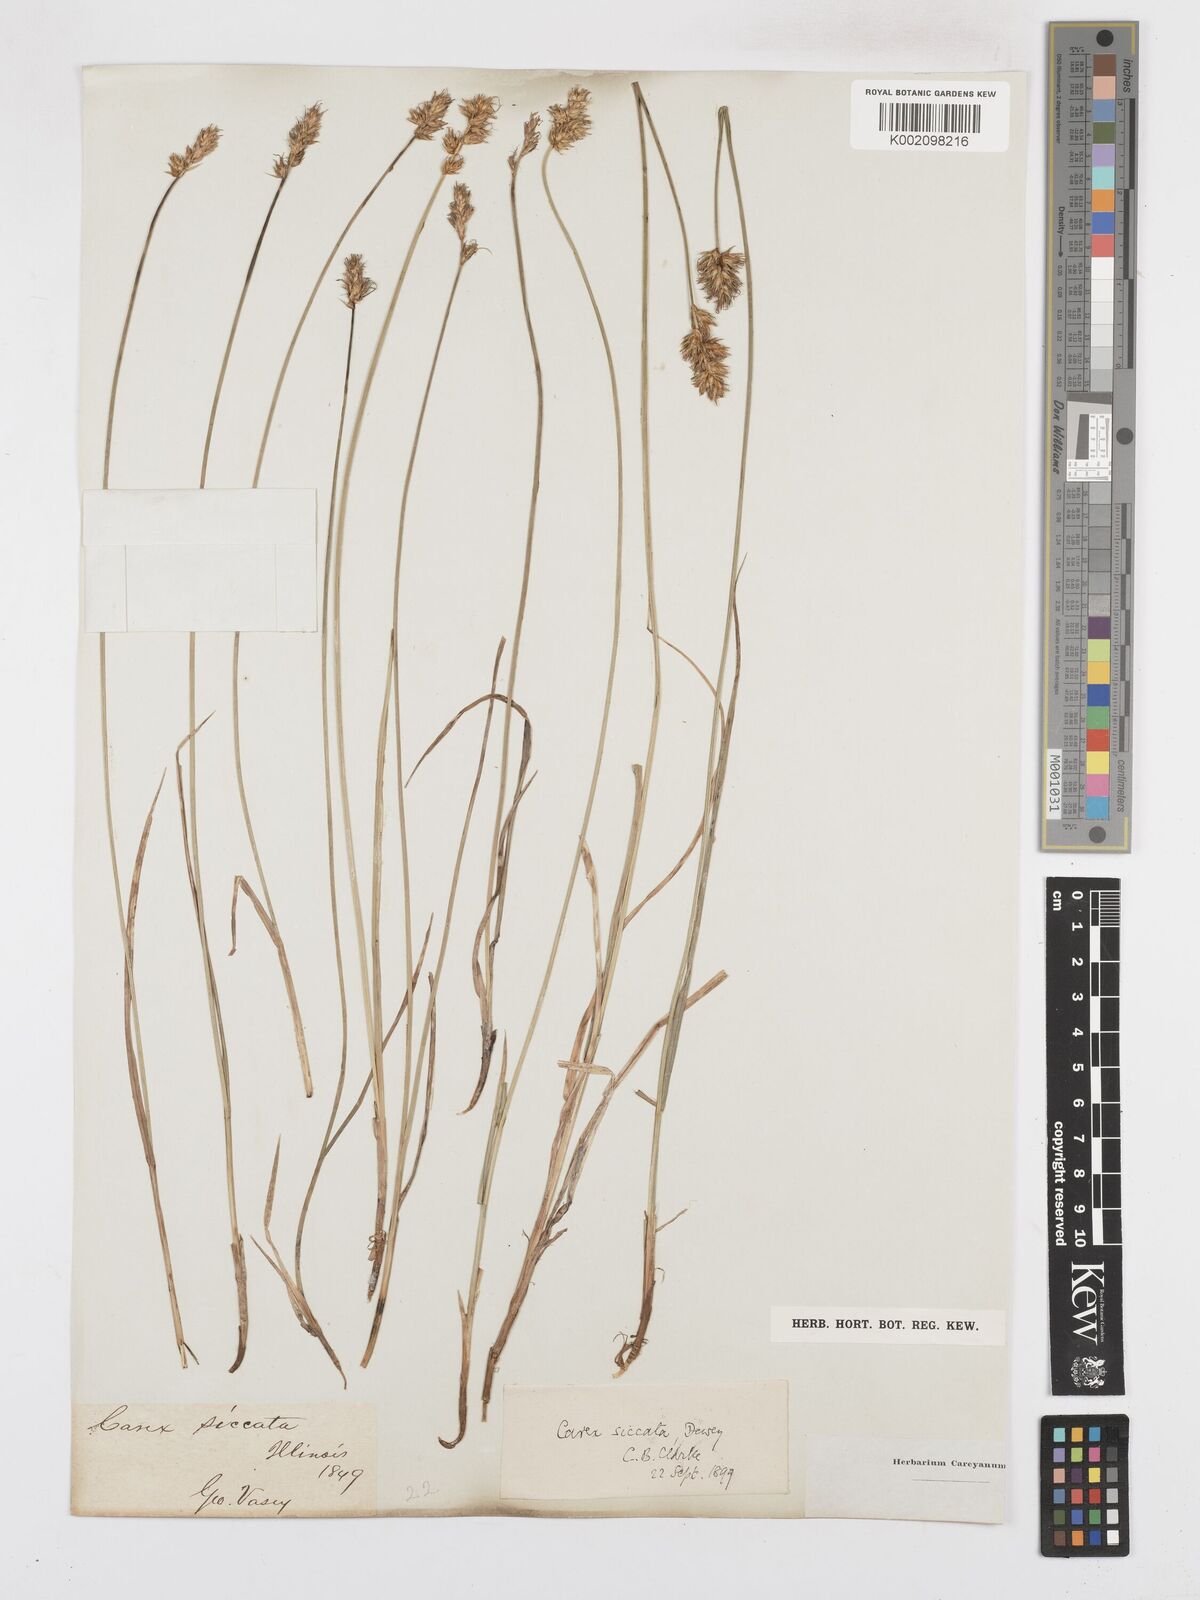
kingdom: Plantae
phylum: Tracheophyta
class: Liliopsida
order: Poales
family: Cyperaceae
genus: Carex
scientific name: Carex foenea
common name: Bronze sedge
